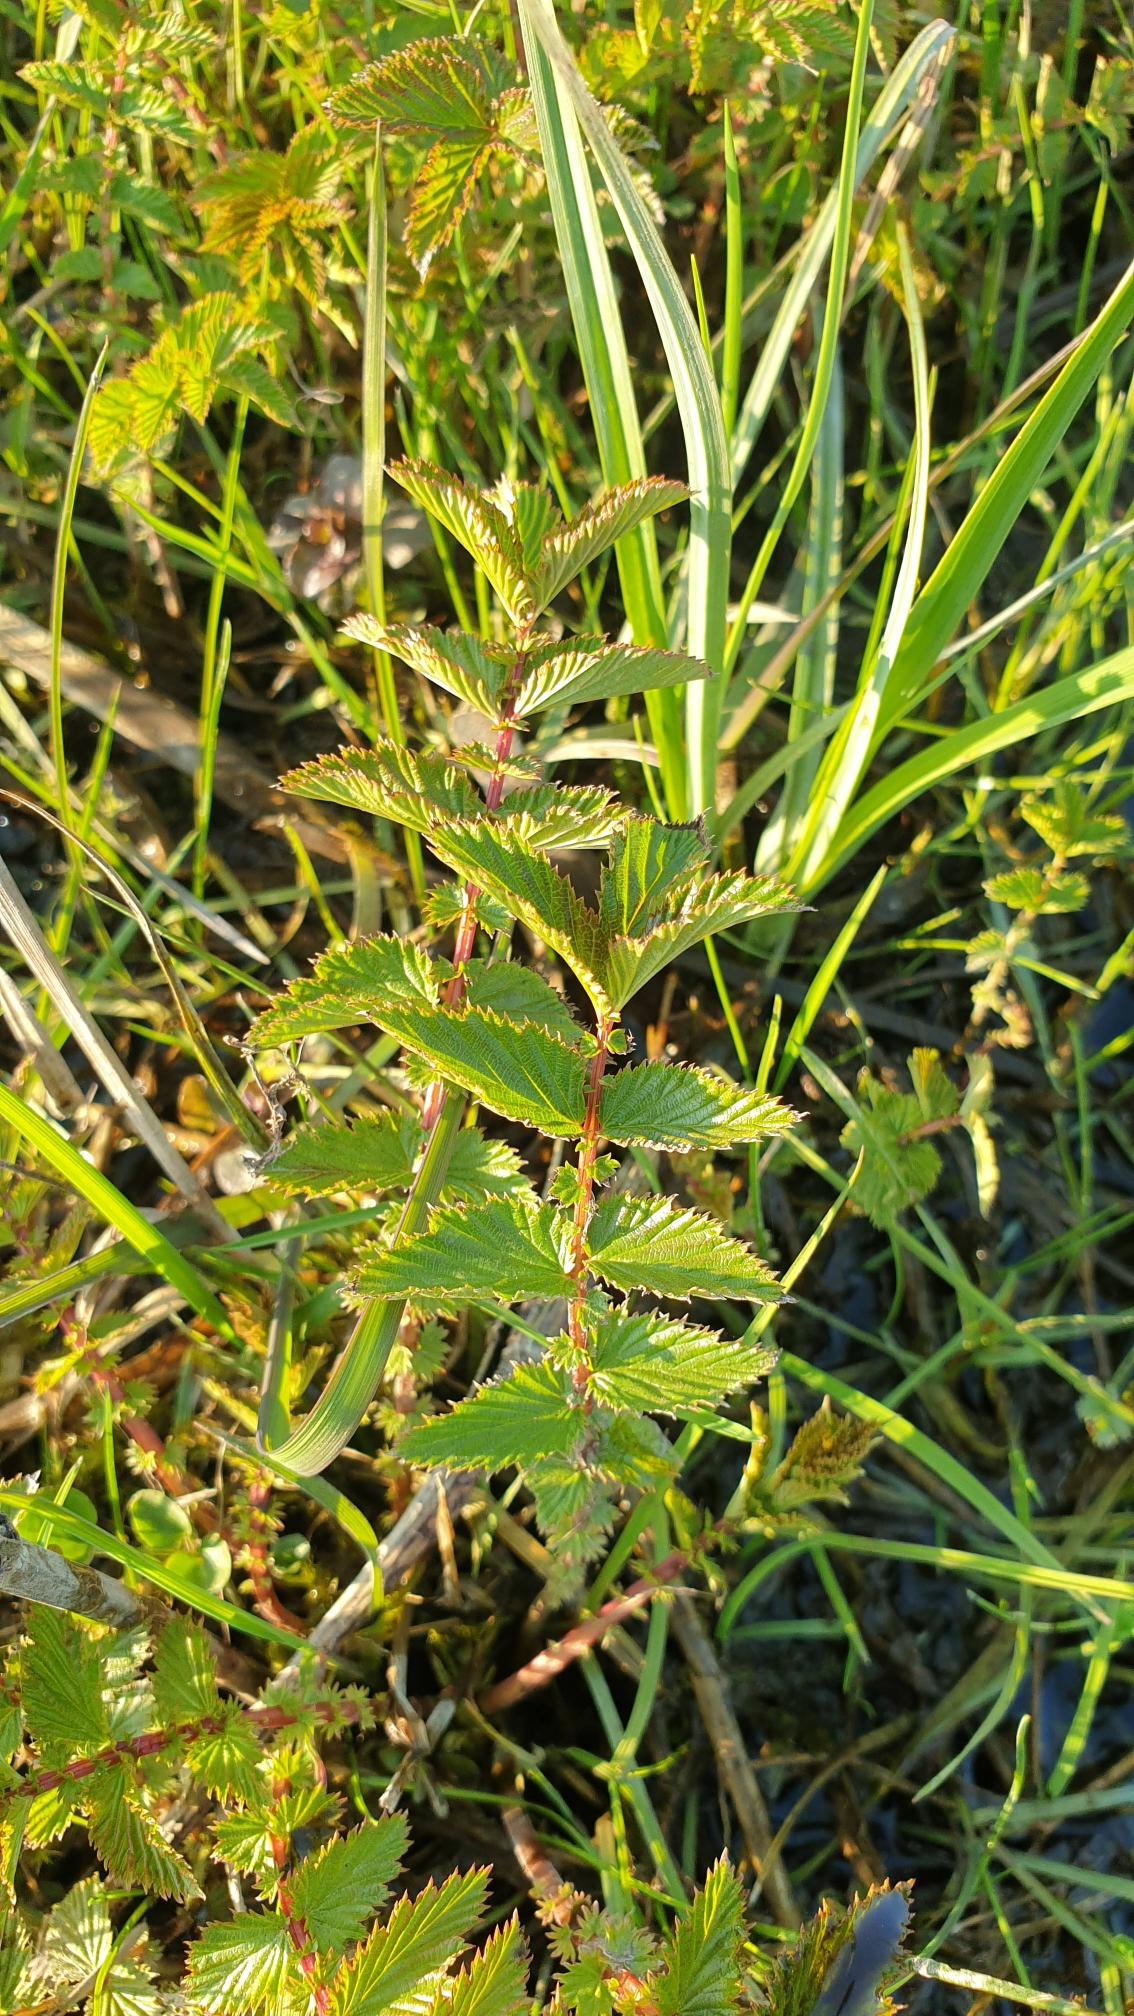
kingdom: Plantae
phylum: Tracheophyta
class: Magnoliopsida
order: Rosales
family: Rosaceae
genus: Filipendula
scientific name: Filipendula ulmaria
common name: Almindelig mjødurt
